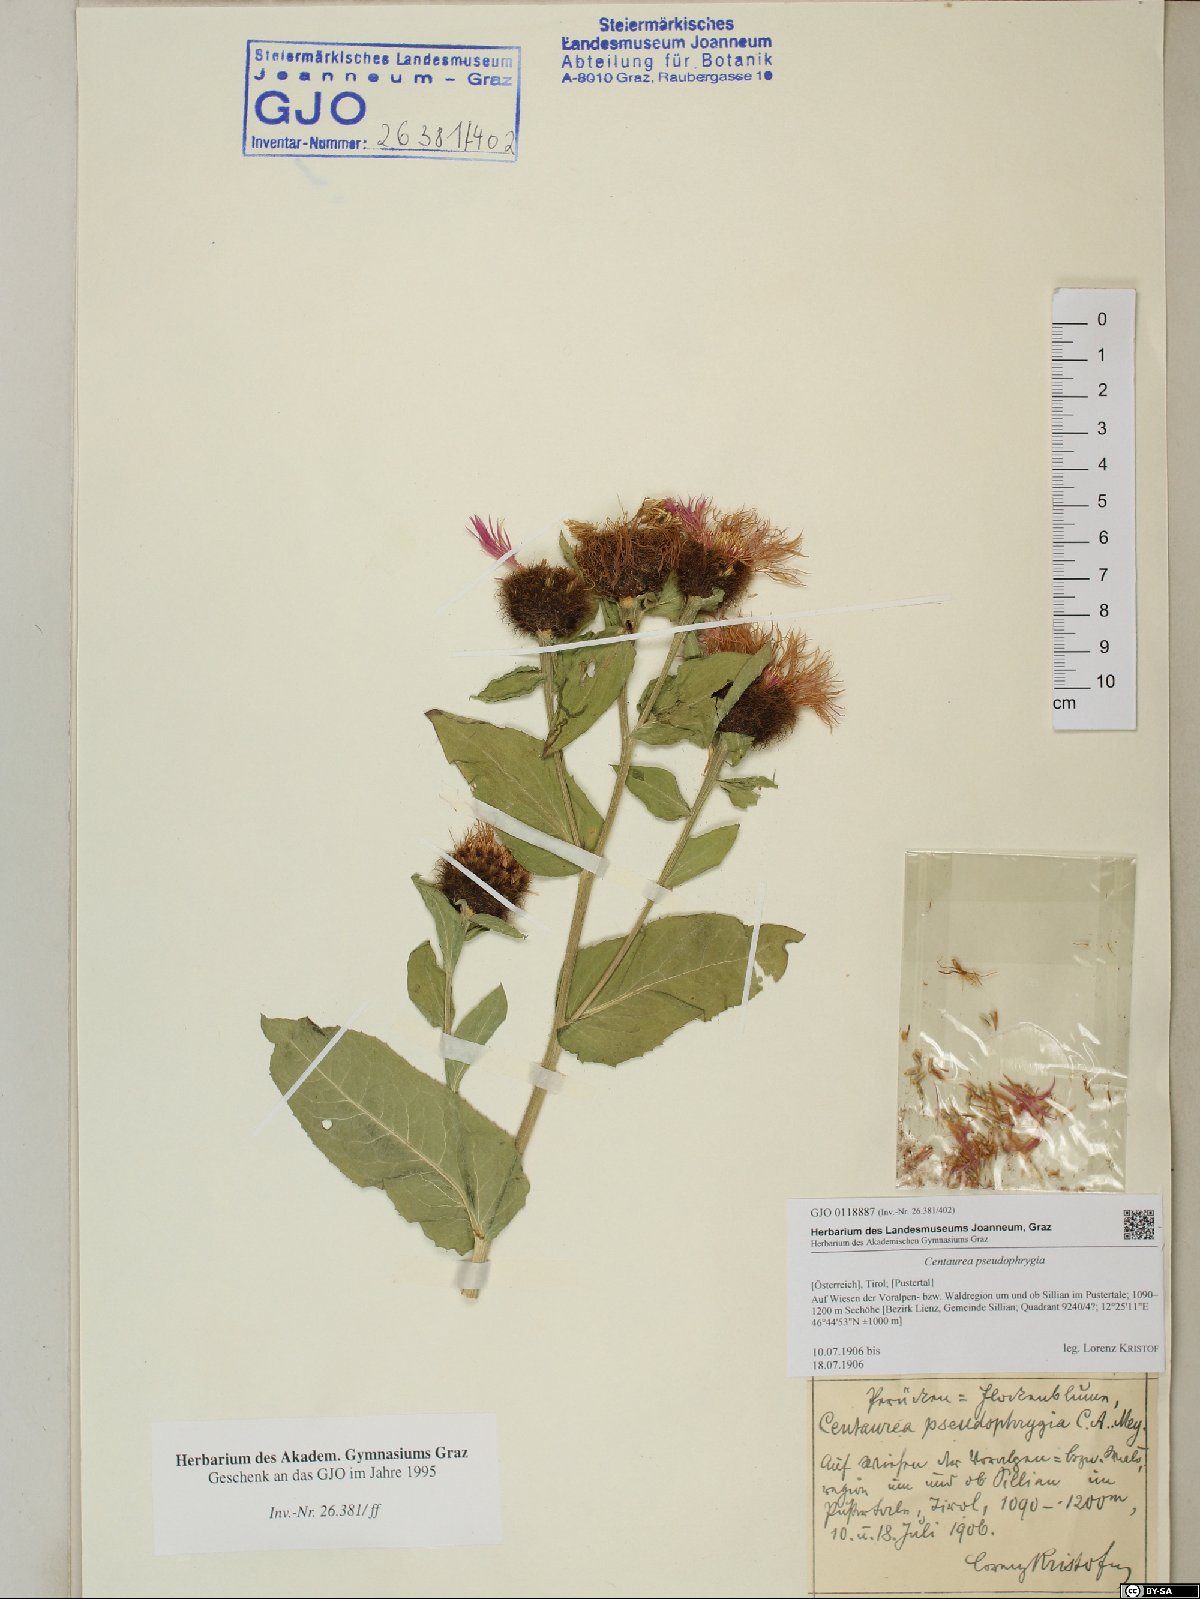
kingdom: Plantae
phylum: Tracheophyta
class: Magnoliopsida
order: Asterales
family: Asteraceae
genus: Centaurea
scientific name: Centaurea pseudophrygia
